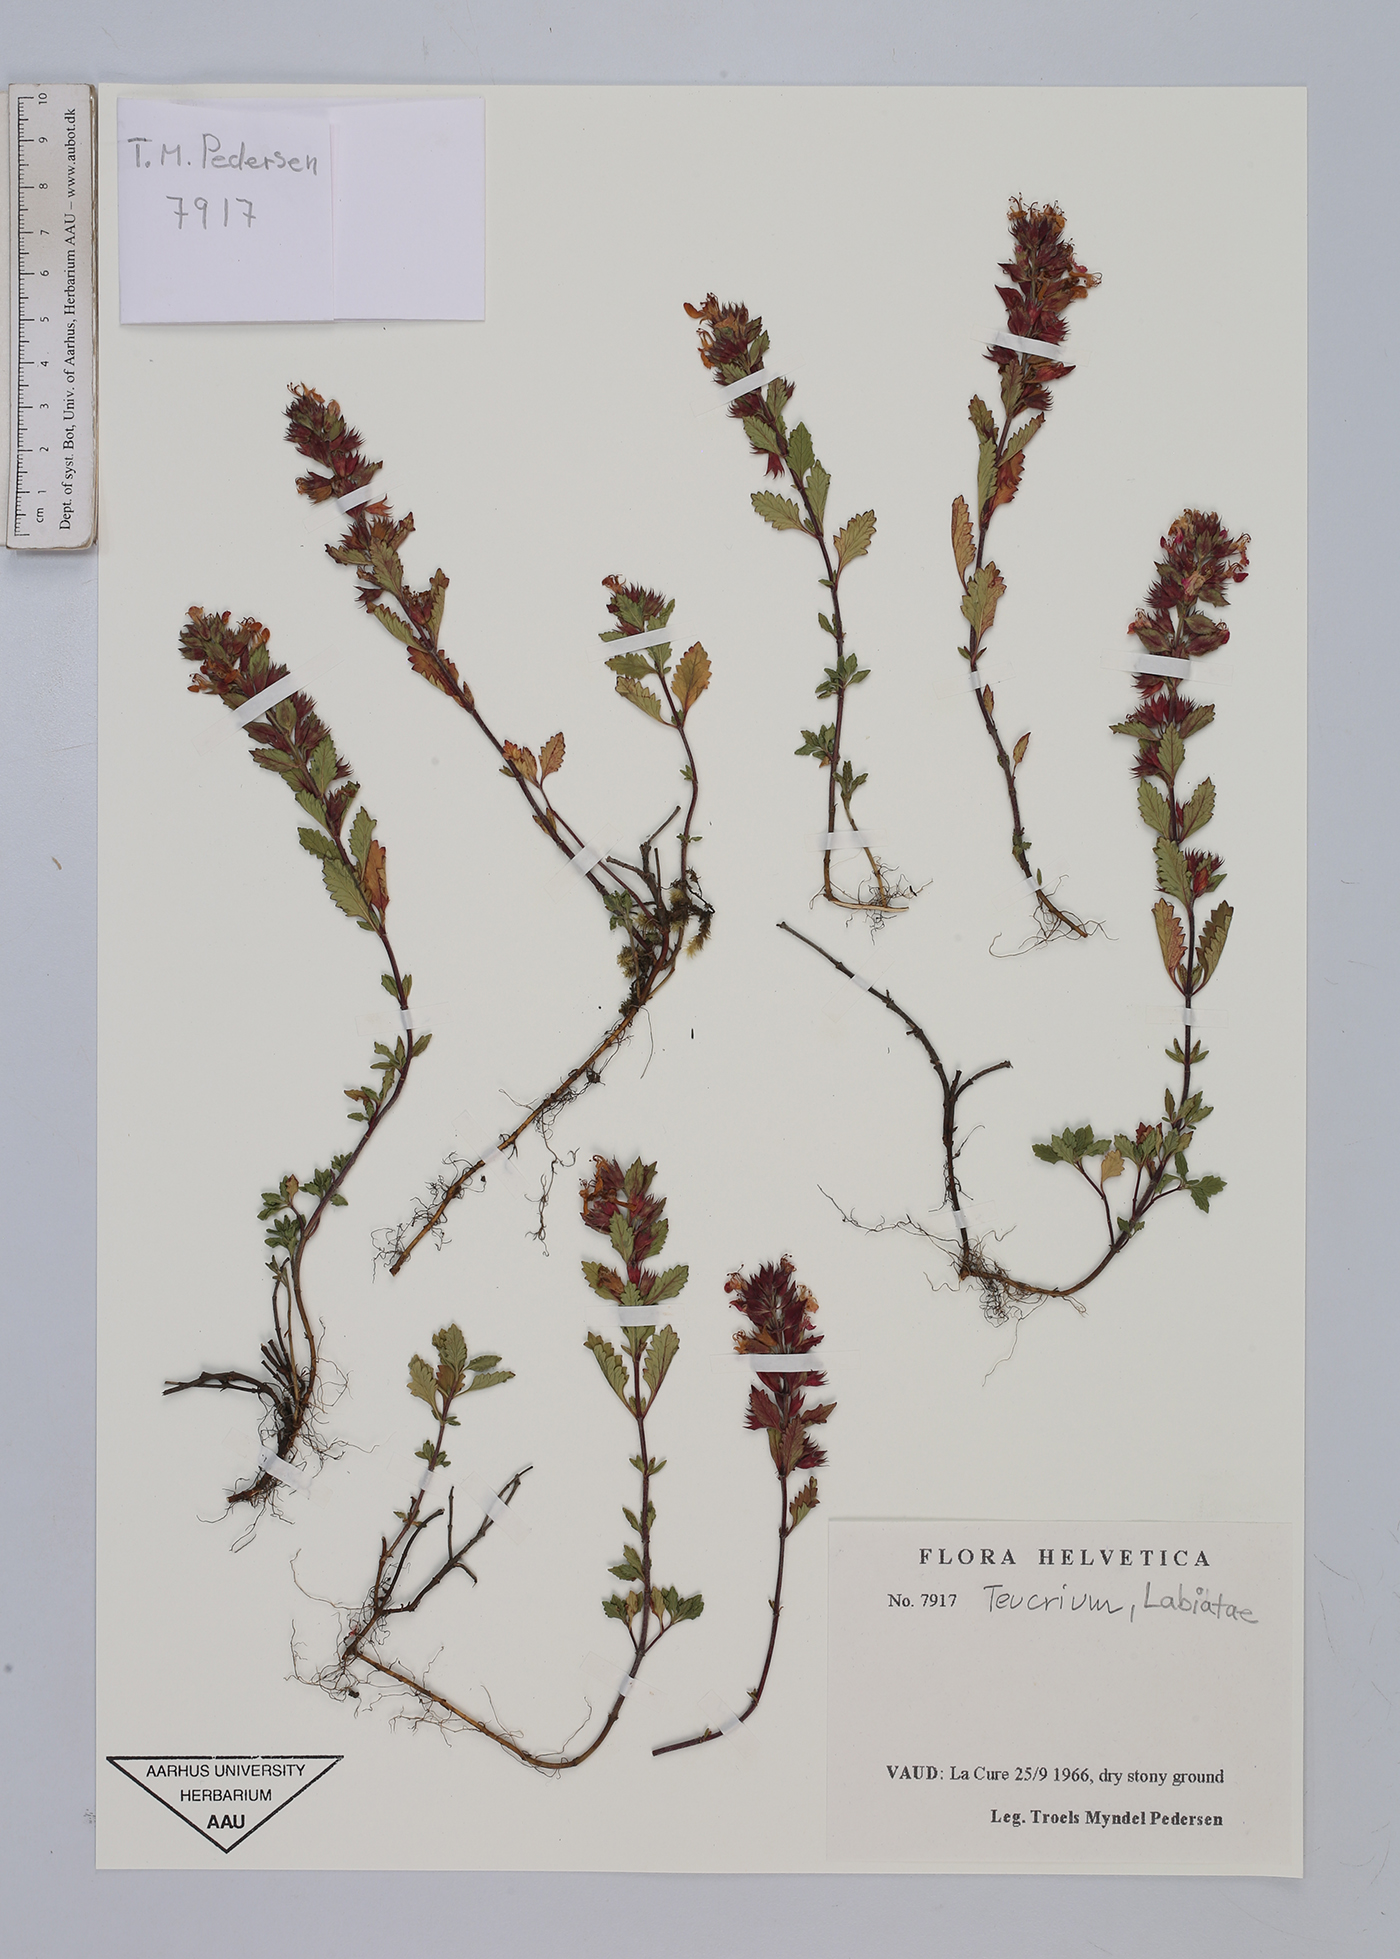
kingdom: Plantae
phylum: Tracheophyta
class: Magnoliopsida
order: Lamiales
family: Lamiaceae
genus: Teucrium
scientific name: Teucrium
